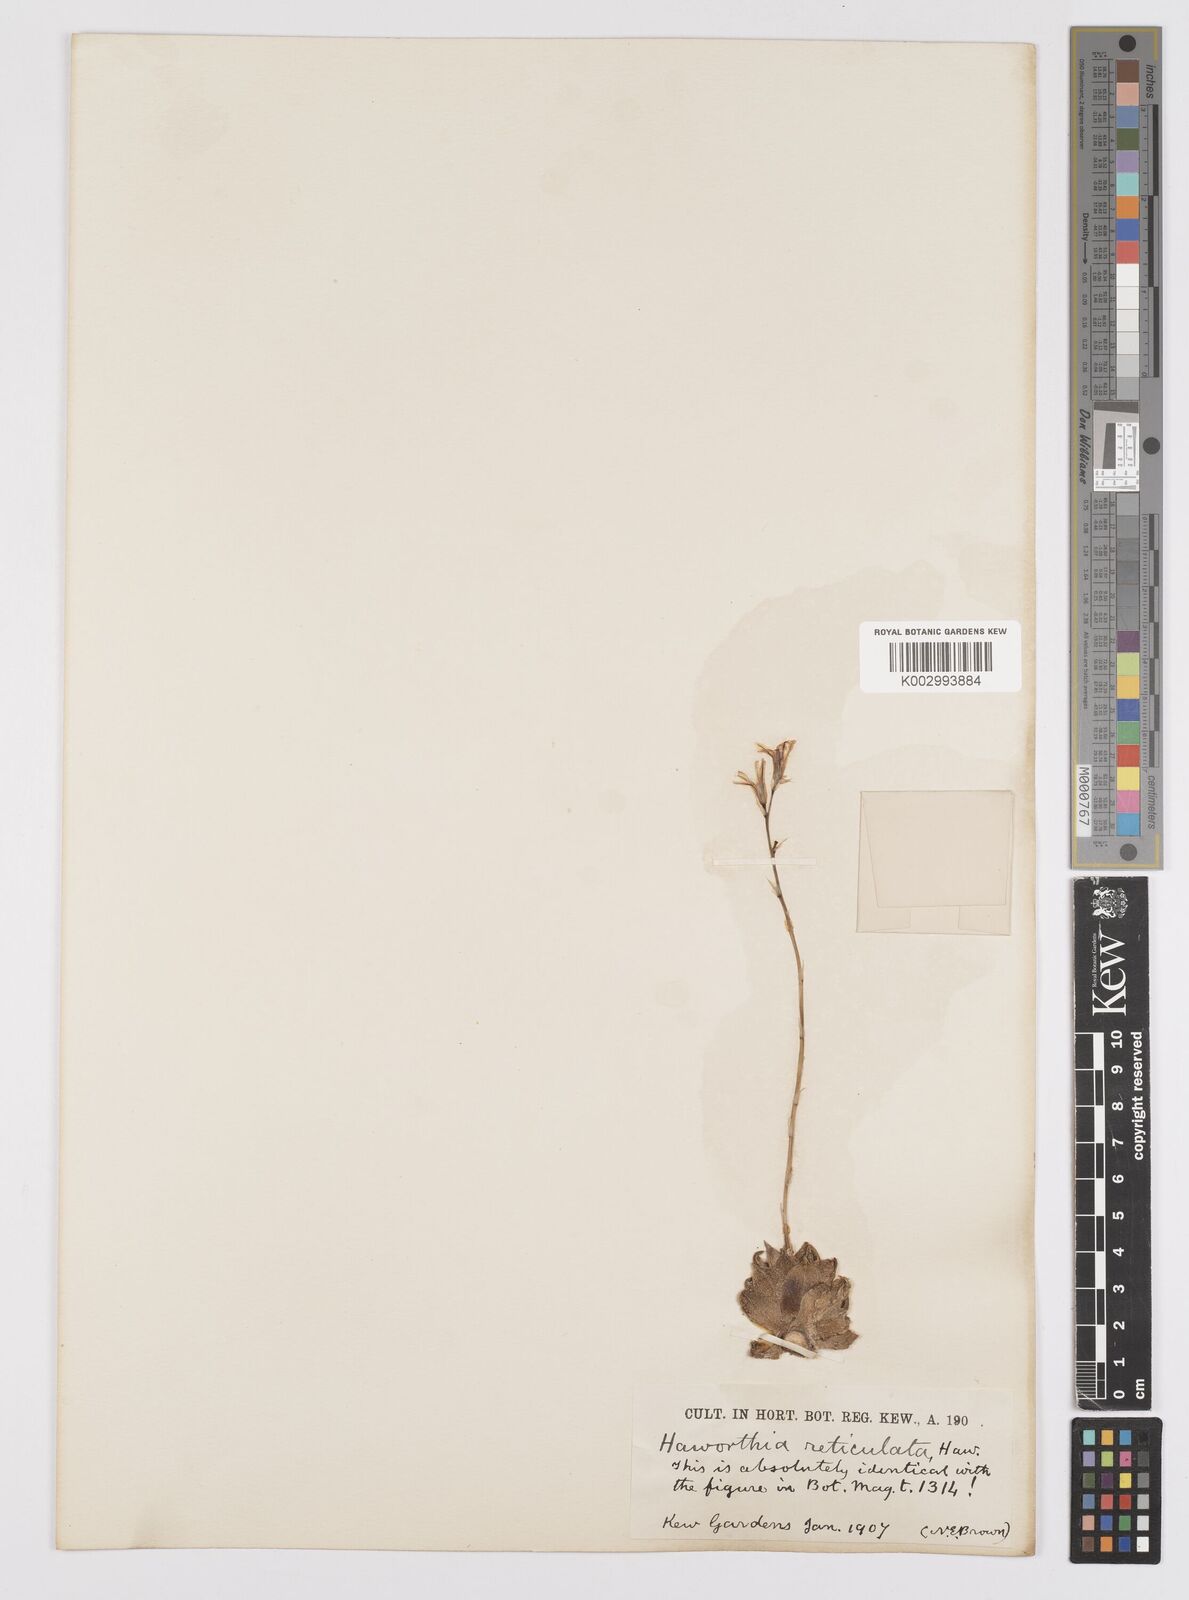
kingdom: Plantae
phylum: Tracheophyta
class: Liliopsida
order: Asparagales
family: Asphodelaceae
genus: Haworthia
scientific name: Haworthia reticulata
